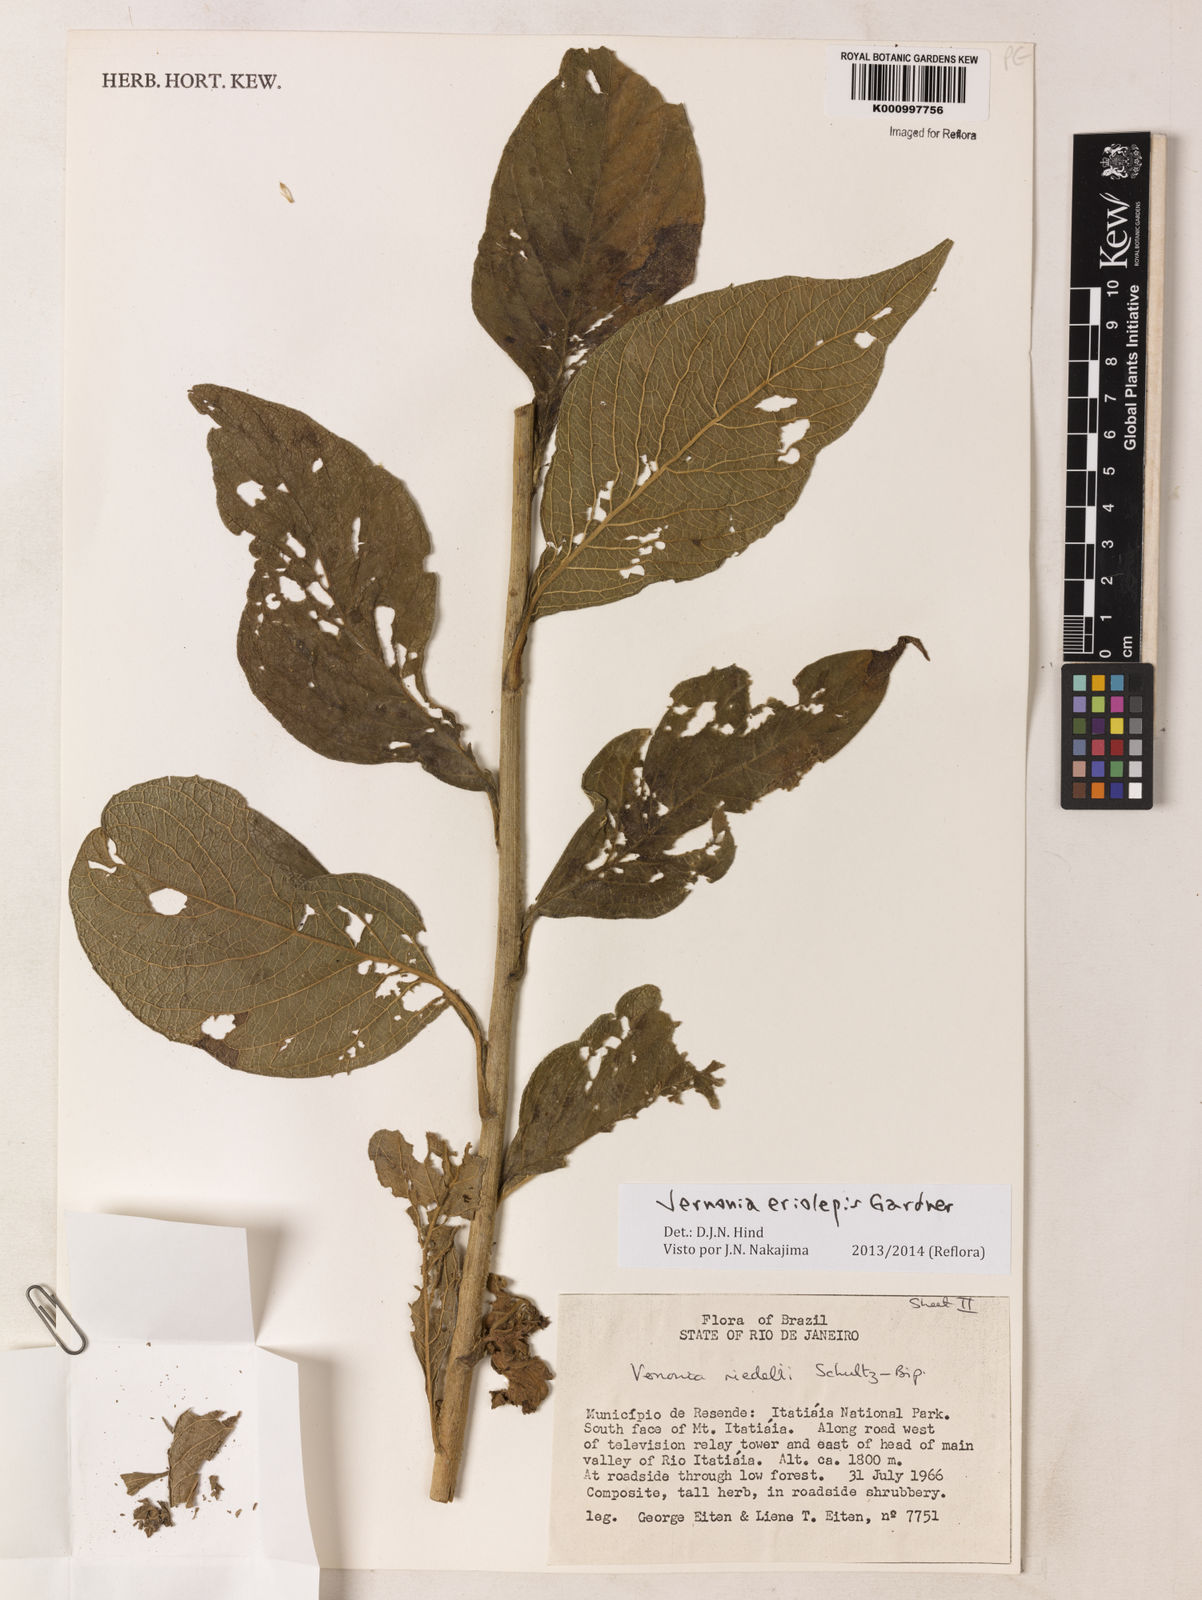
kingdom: Plantae
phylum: Tracheophyta
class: Magnoliopsida
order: Asterales
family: Asteraceae
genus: Lepidaploa
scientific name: Lepidaploa eriolepis
